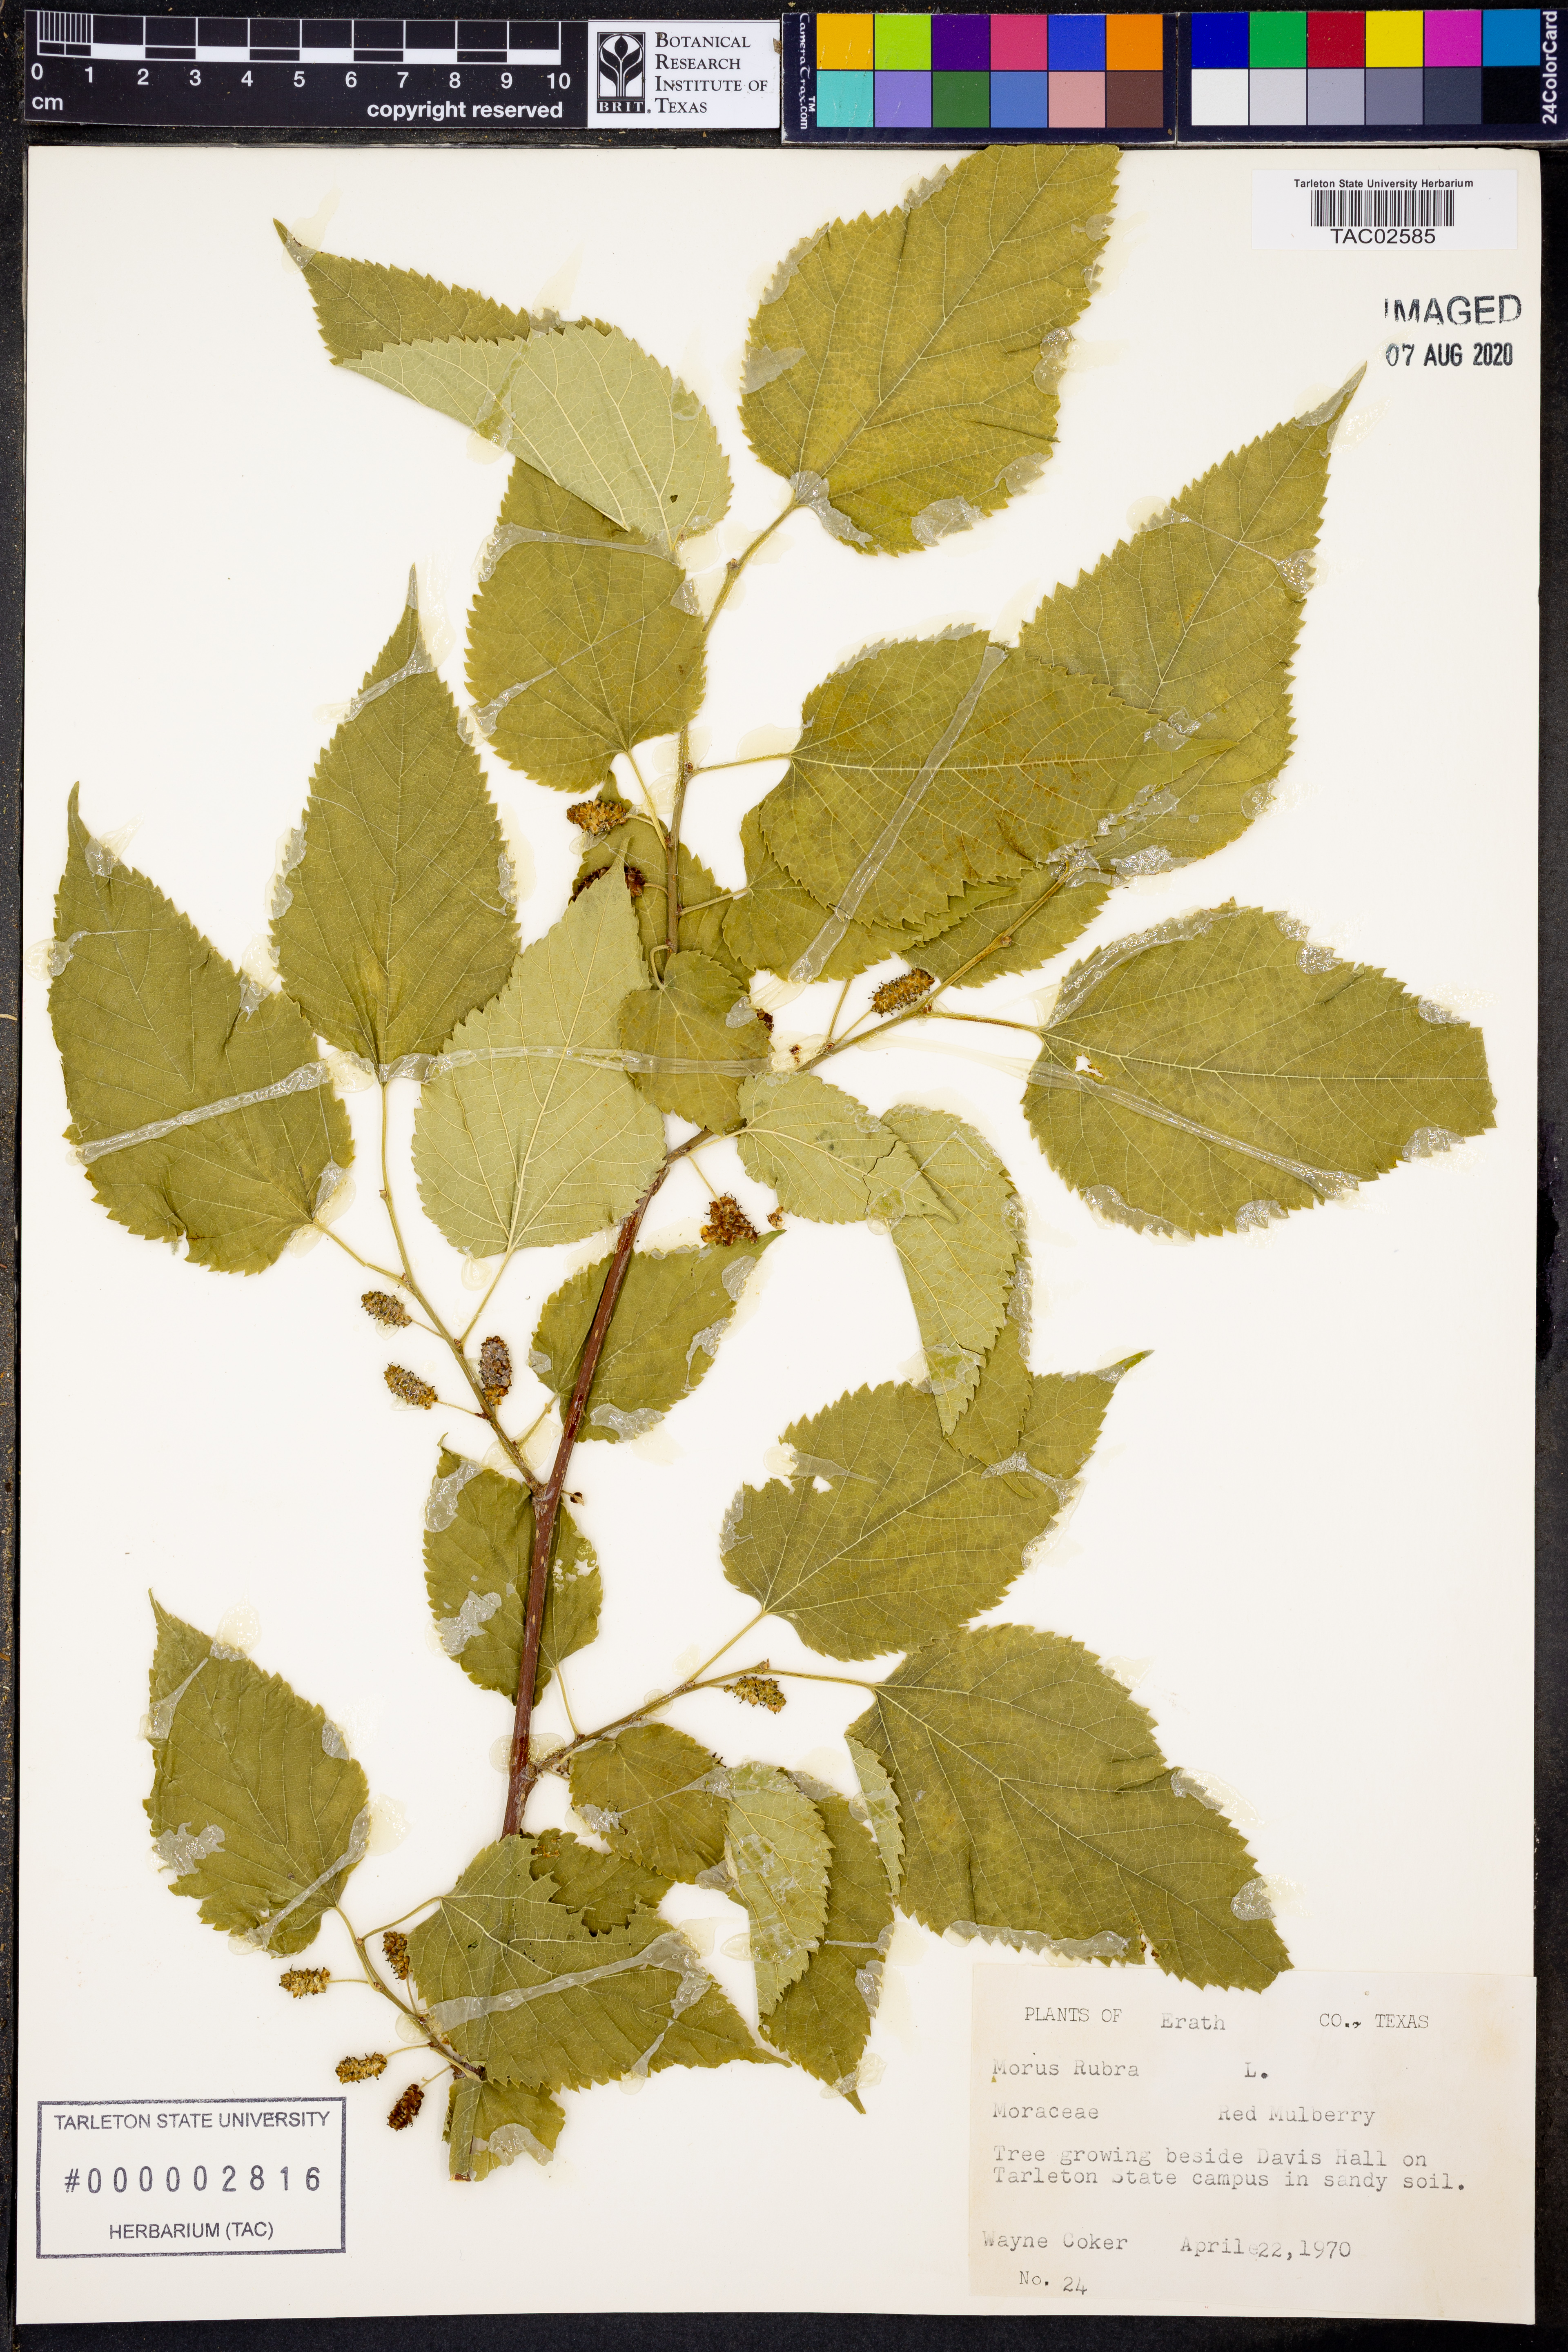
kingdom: Plantae
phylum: Tracheophyta
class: Magnoliopsida
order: Rosales
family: Moraceae
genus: Morus
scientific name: Morus rubra
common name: Red mulberry
